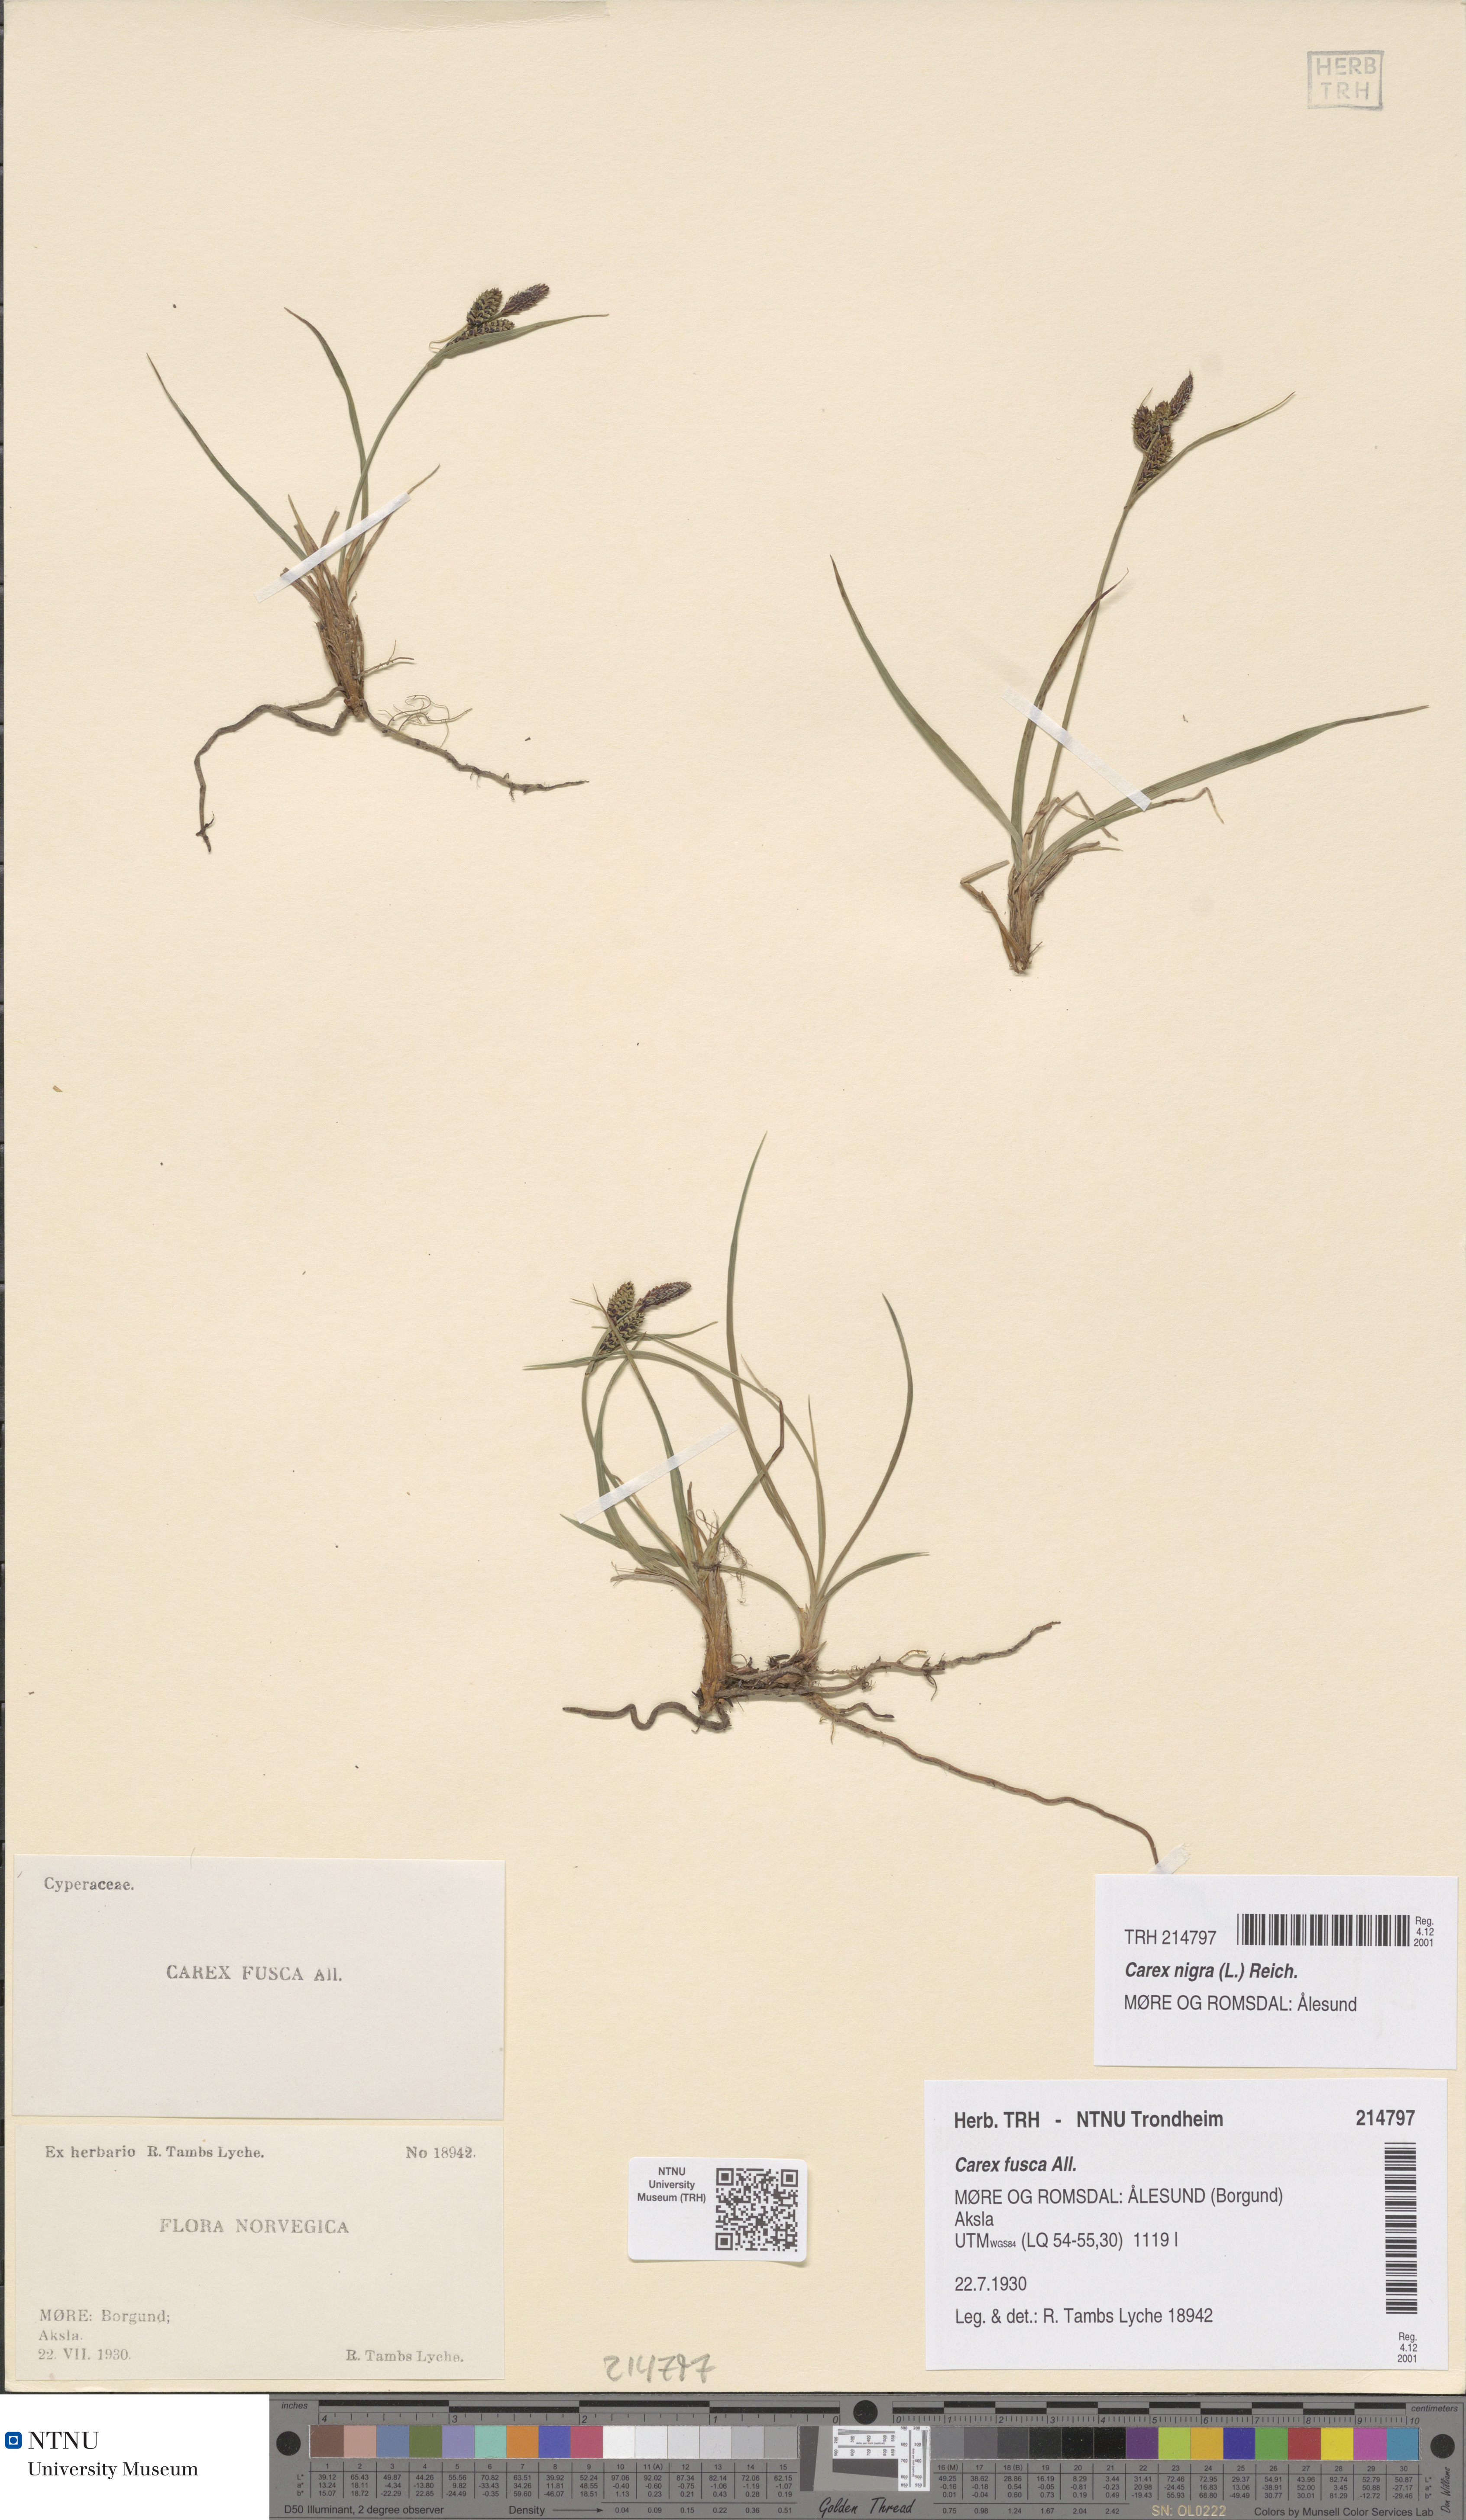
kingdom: Plantae
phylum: Tracheophyta
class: Liliopsida
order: Poales
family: Cyperaceae
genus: Carex
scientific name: Carex nigra
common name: Common sedge
